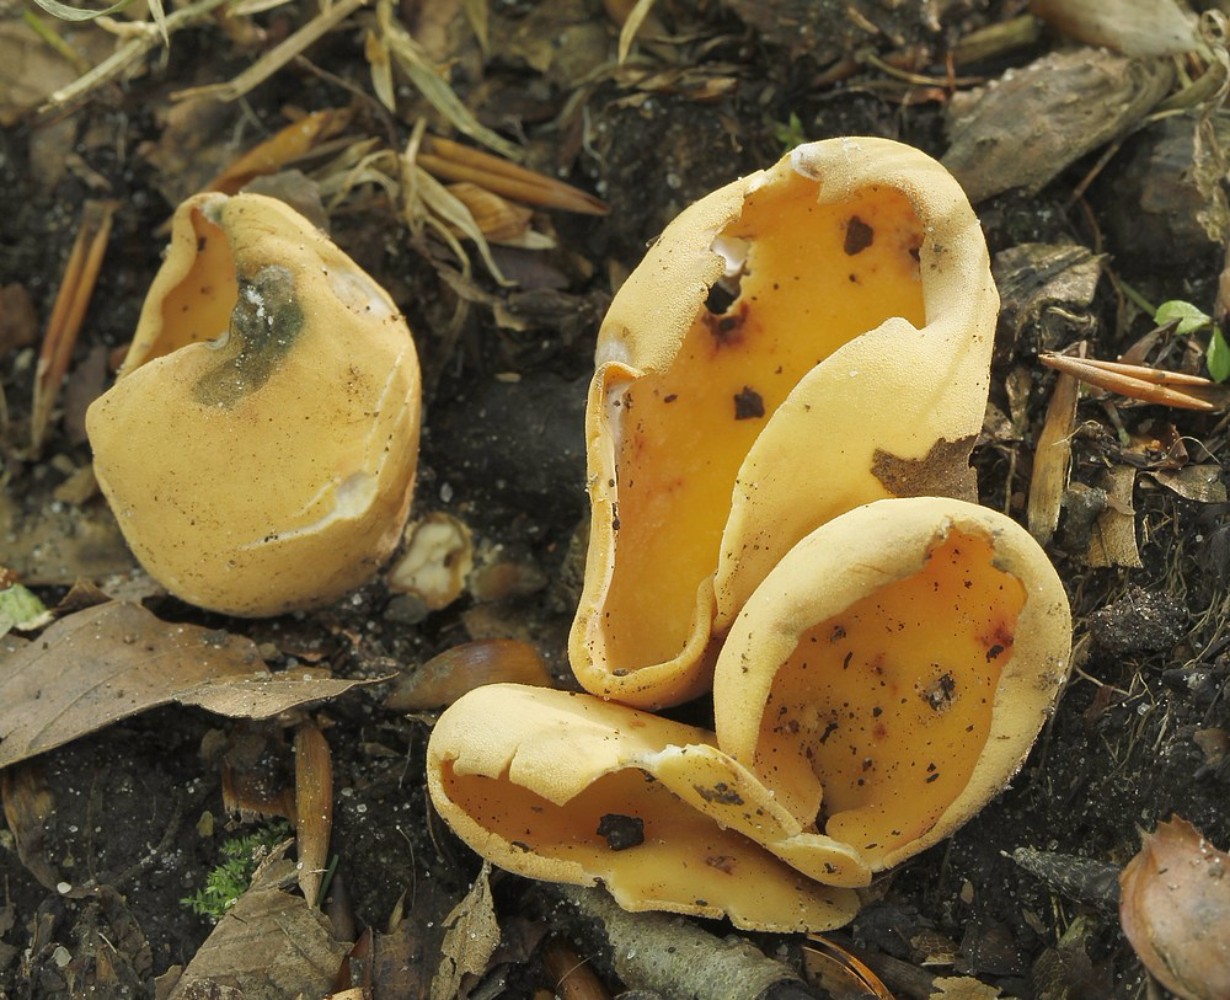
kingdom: Fungi
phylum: Ascomycota
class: Pezizomycetes
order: Pezizales
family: Otideaceae
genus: Otidea
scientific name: Otidea onotica
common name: æsel-ørebæger
